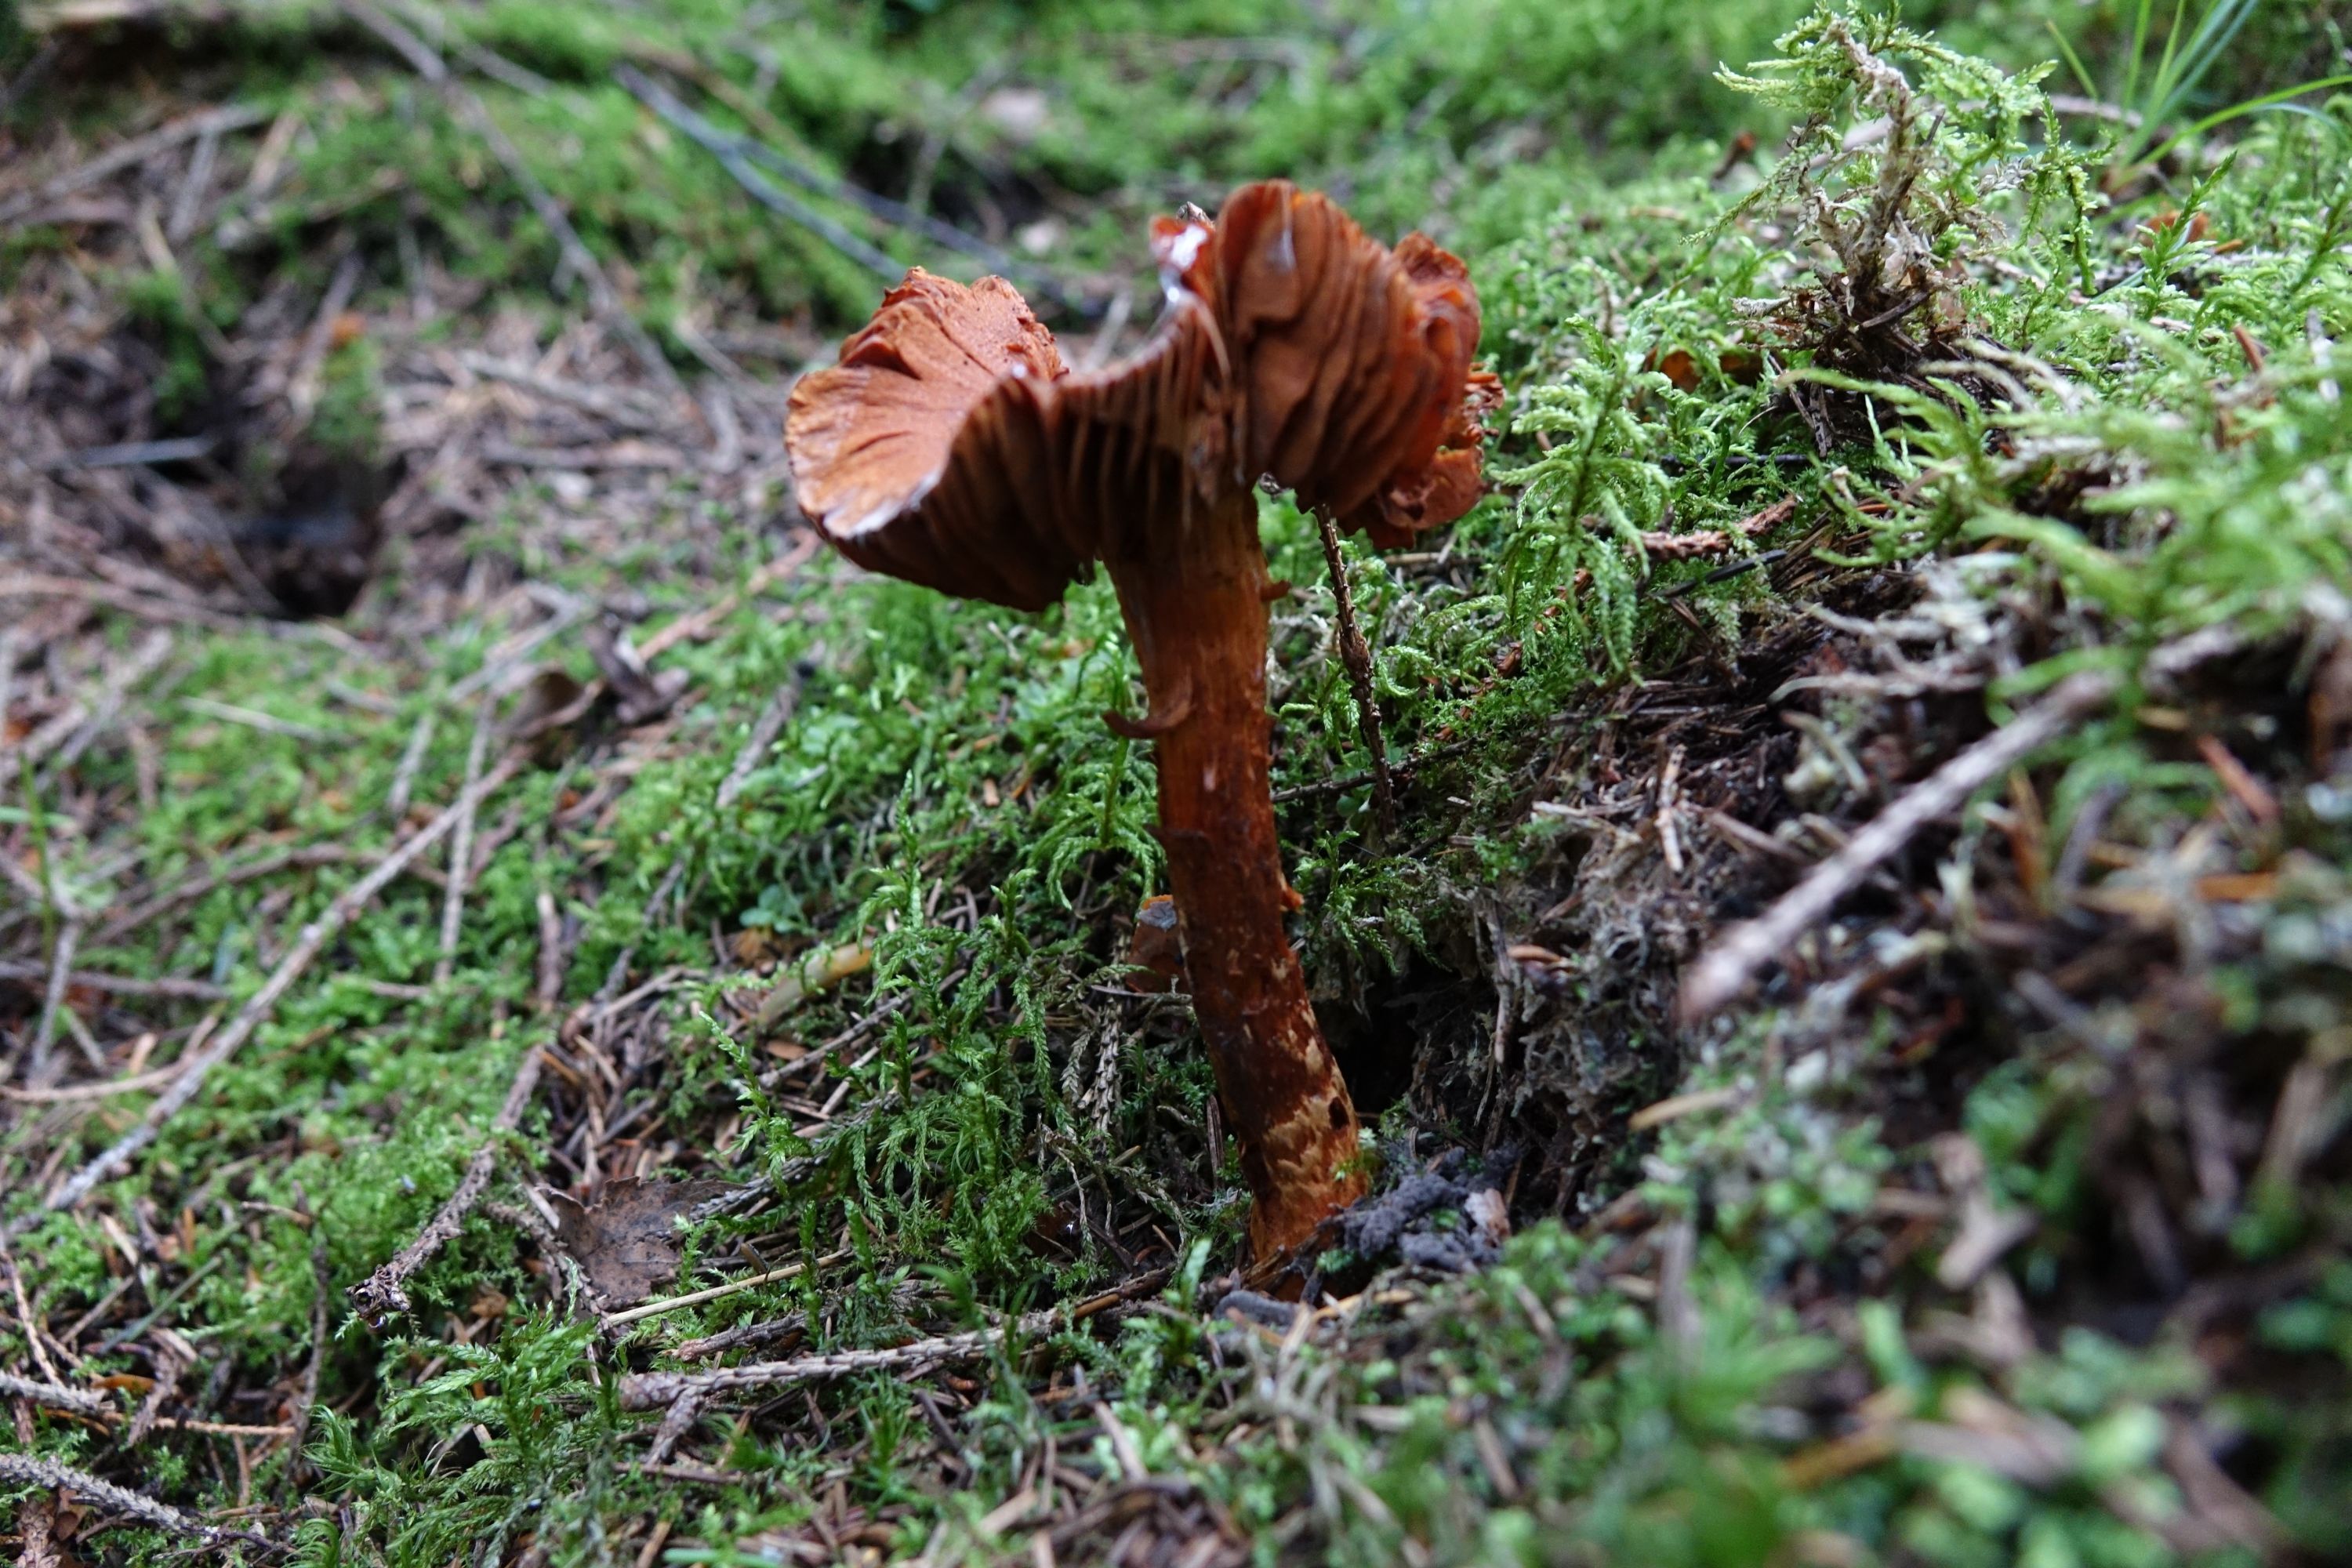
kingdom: Fungi
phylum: Basidiomycota
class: Agaricomycetes
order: Agaricales
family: Cortinariaceae
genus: Cortinarius
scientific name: Cortinarius rubellus
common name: Deadly webcap
